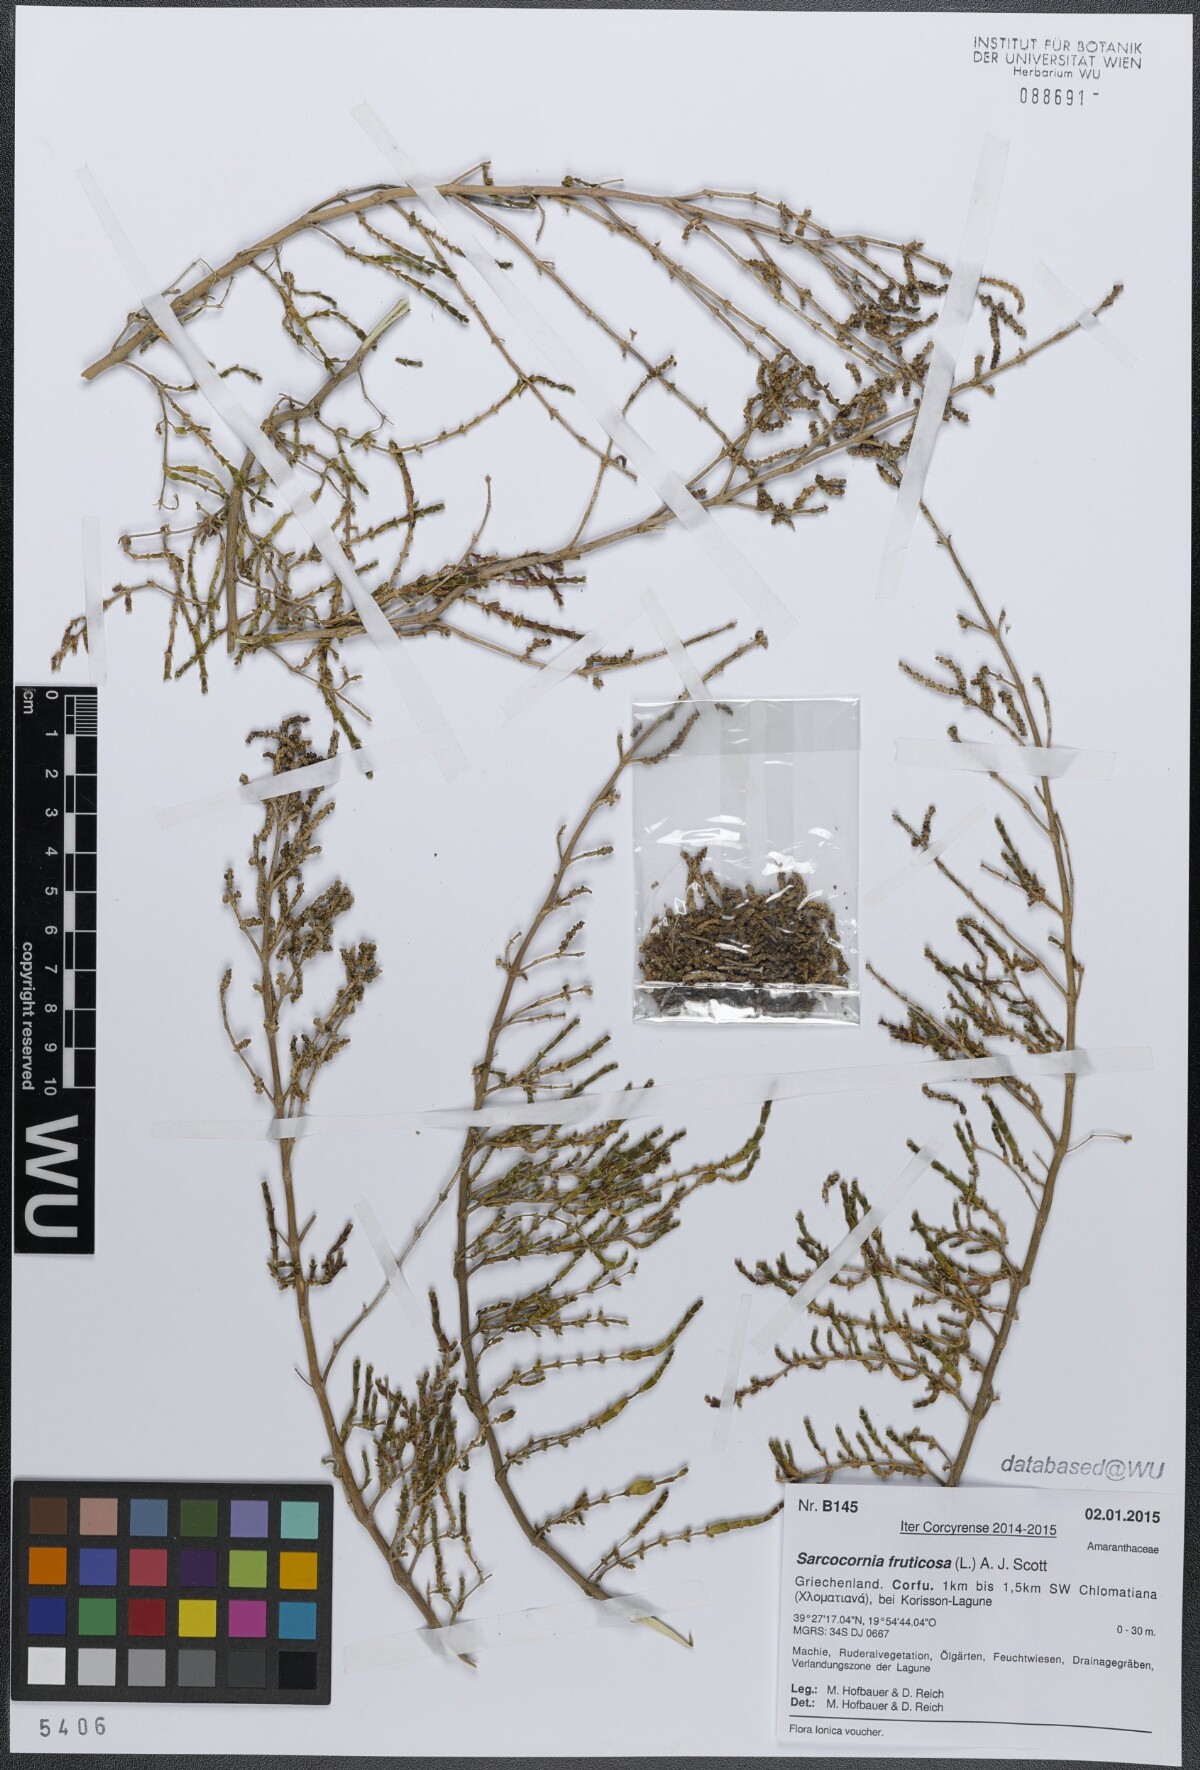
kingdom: Plantae
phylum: Tracheophyta
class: Magnoliopsida
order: Caryophyllales
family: Amaranthaceae
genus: Salicornia
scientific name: Salicornia fruticosa
